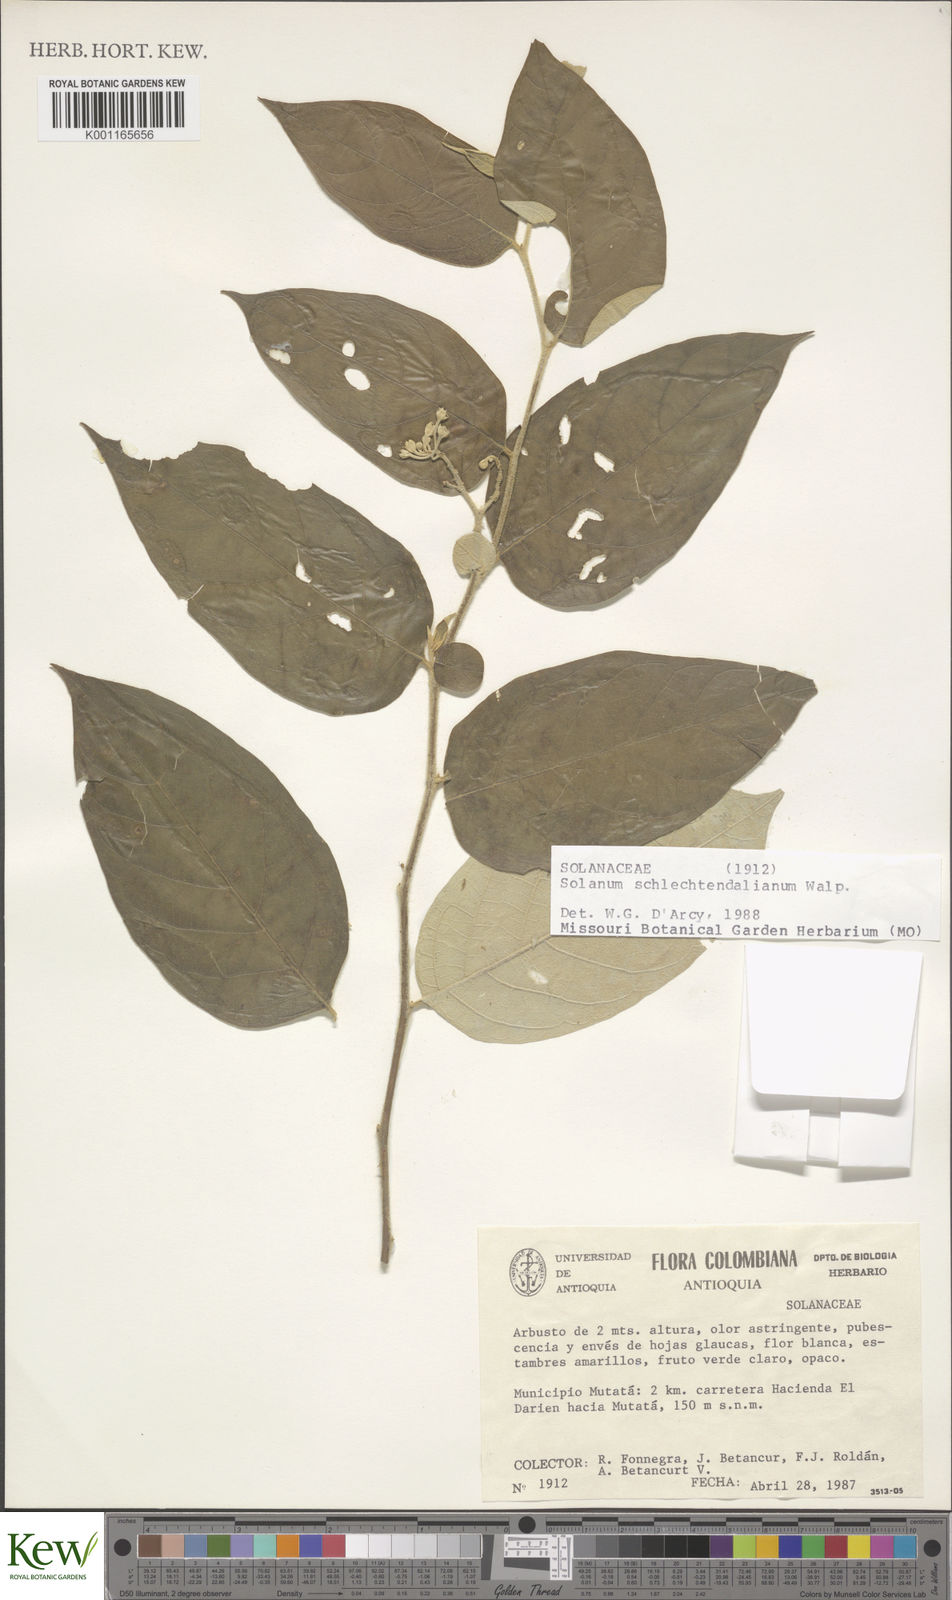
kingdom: Plantae
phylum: Tracheophyta
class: Magnoliopsida
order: Solanales
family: Solanaceae
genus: Solanum
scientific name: Solanum schlechtendalianum
